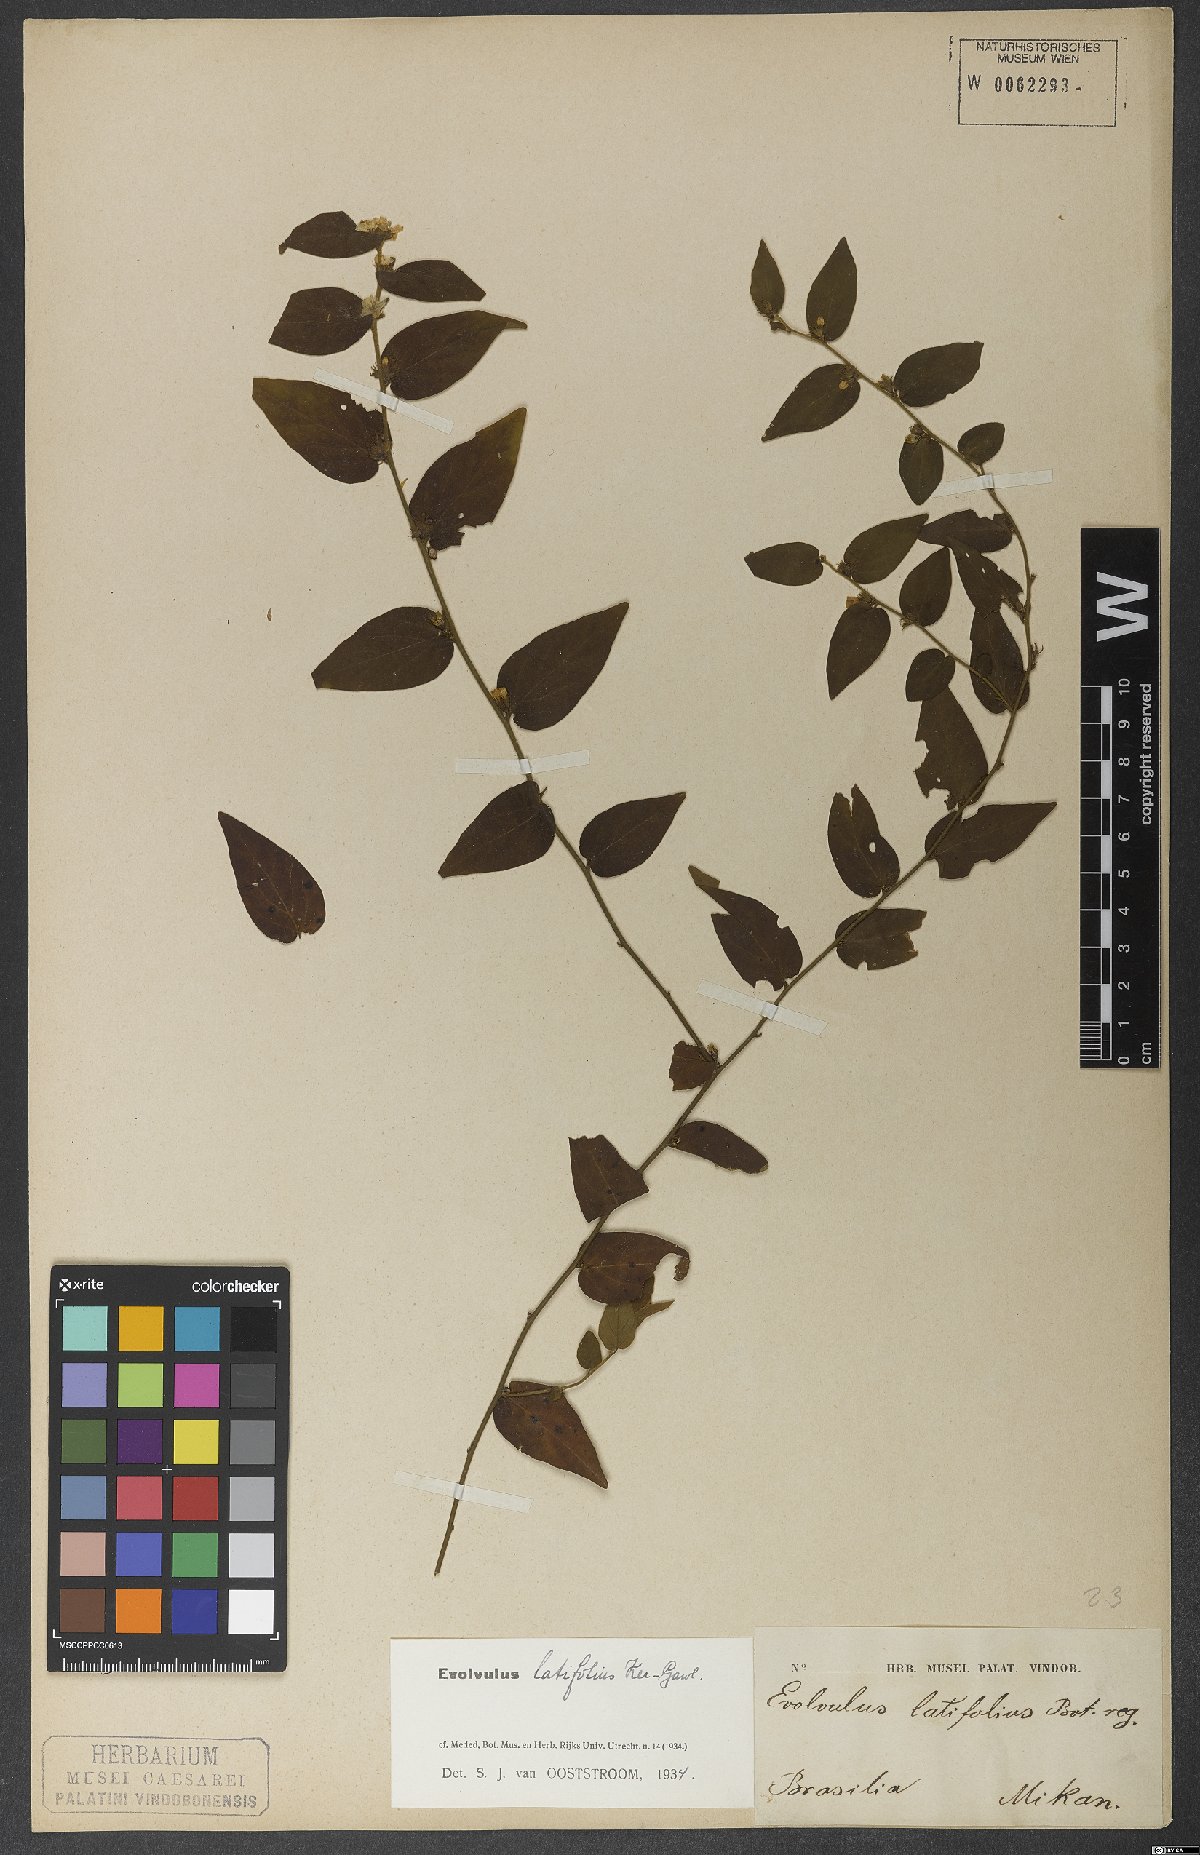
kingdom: Plantae
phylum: Tracheophyta
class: Magnoliopsida
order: Solanales
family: Convolvulaceae
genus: Evolvulus
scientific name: Evolvulus latifolius
